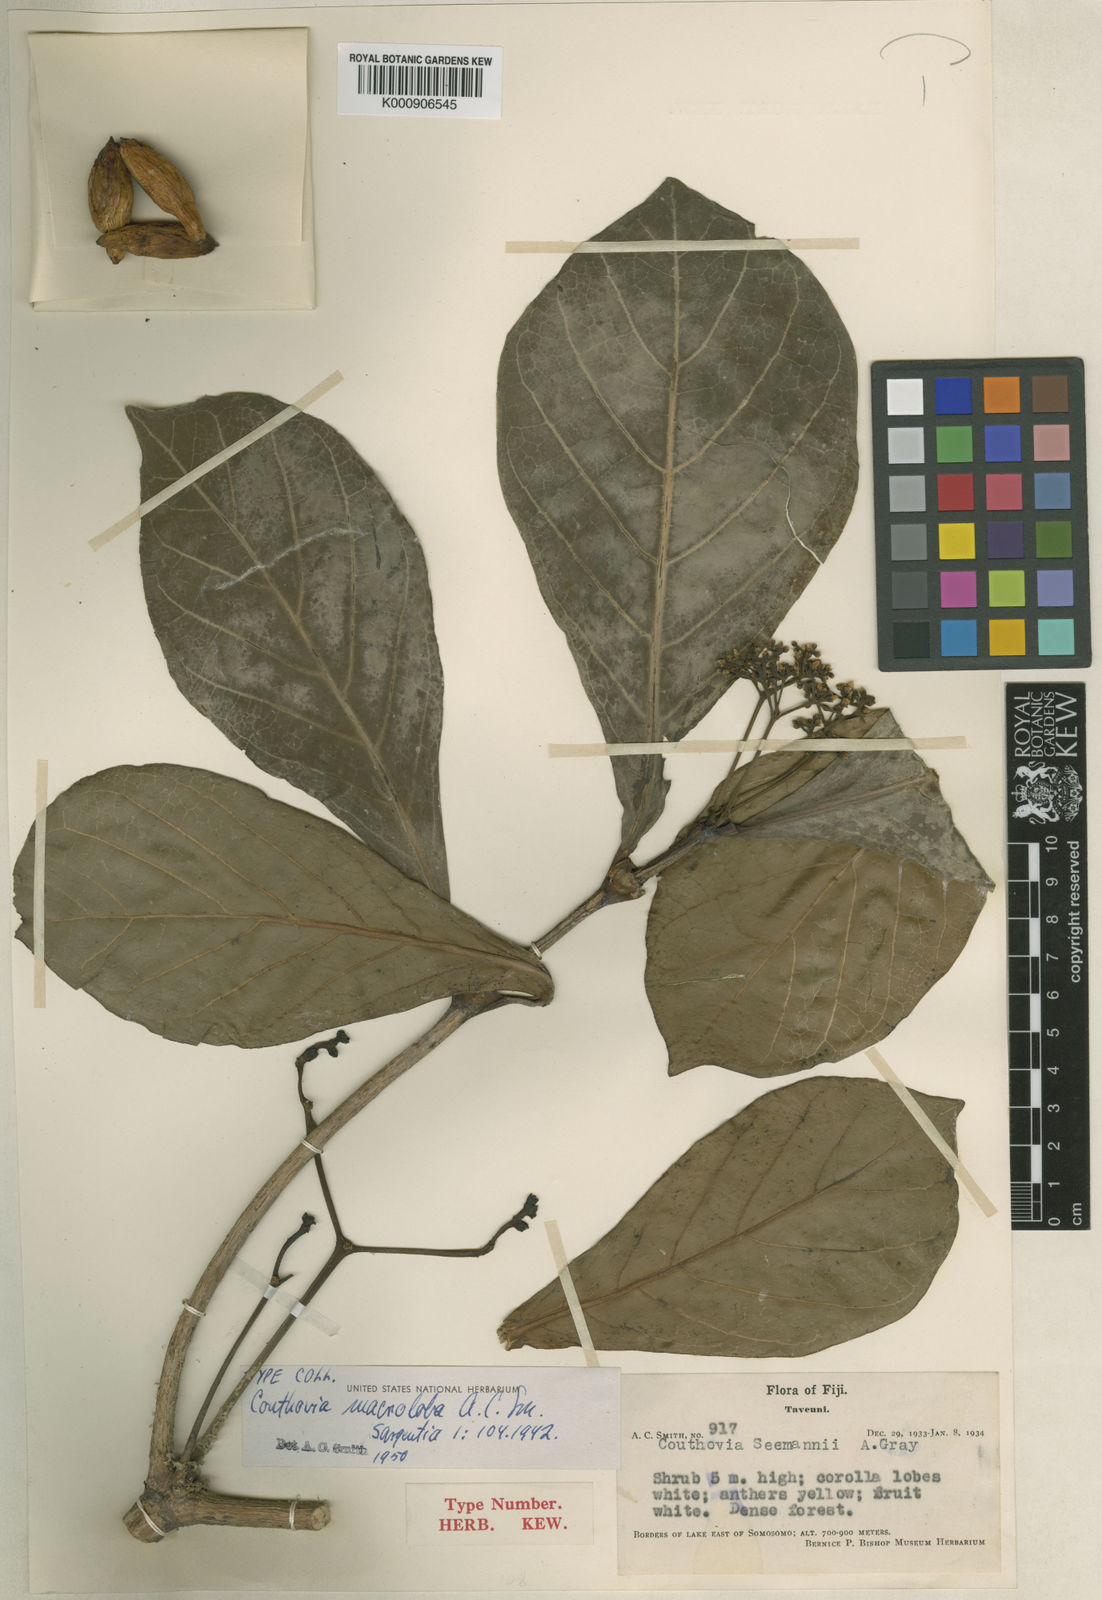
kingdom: Plantae
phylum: Tracheophyta
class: Magnoliopsida
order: Gentianales
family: Loganiaceae
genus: Neuburgia
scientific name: Neuburgia macrocarpa
